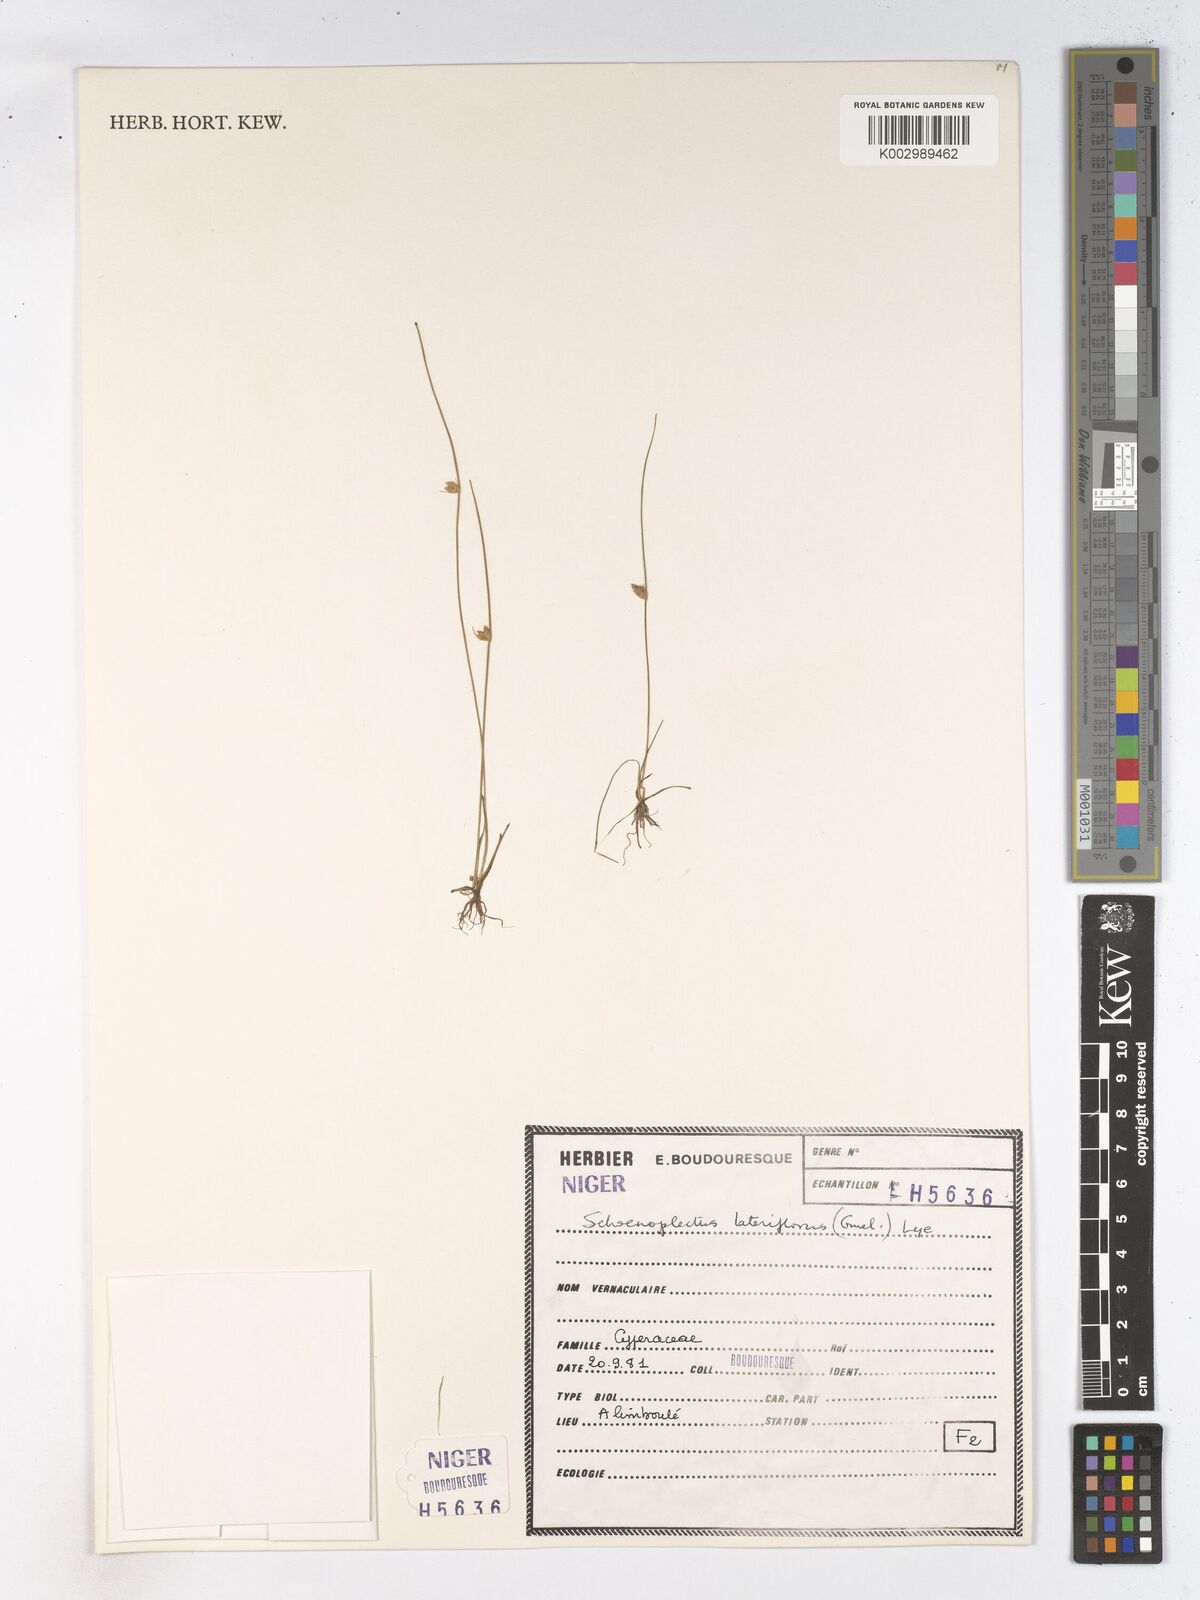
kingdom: Plantae
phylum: Tracheophyta
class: Liliopsida
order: Poales
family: Cyperaceae
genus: Schoenoplectiella
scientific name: Schoenoplectiella lateriflora
